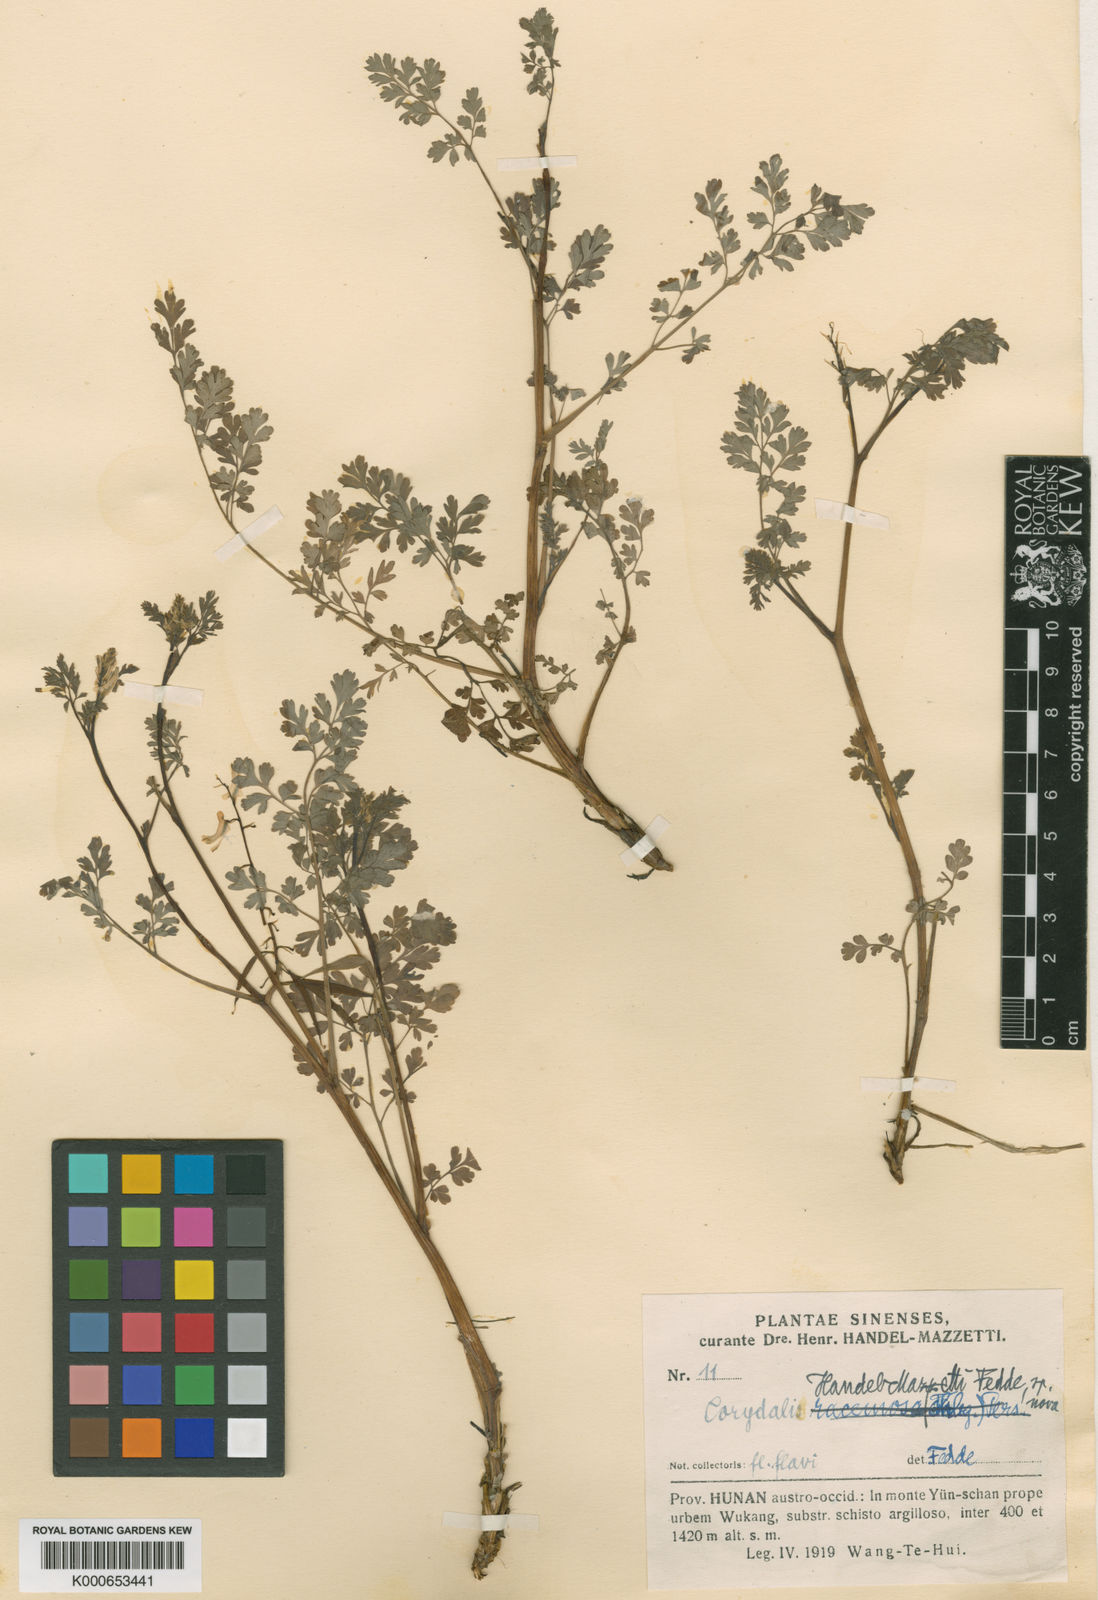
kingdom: Plantae
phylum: Tracheophyta
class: Magnoliopsida
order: Ranunculales
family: Papaveraceae
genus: Corydalis
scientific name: Corydalis racemosa
